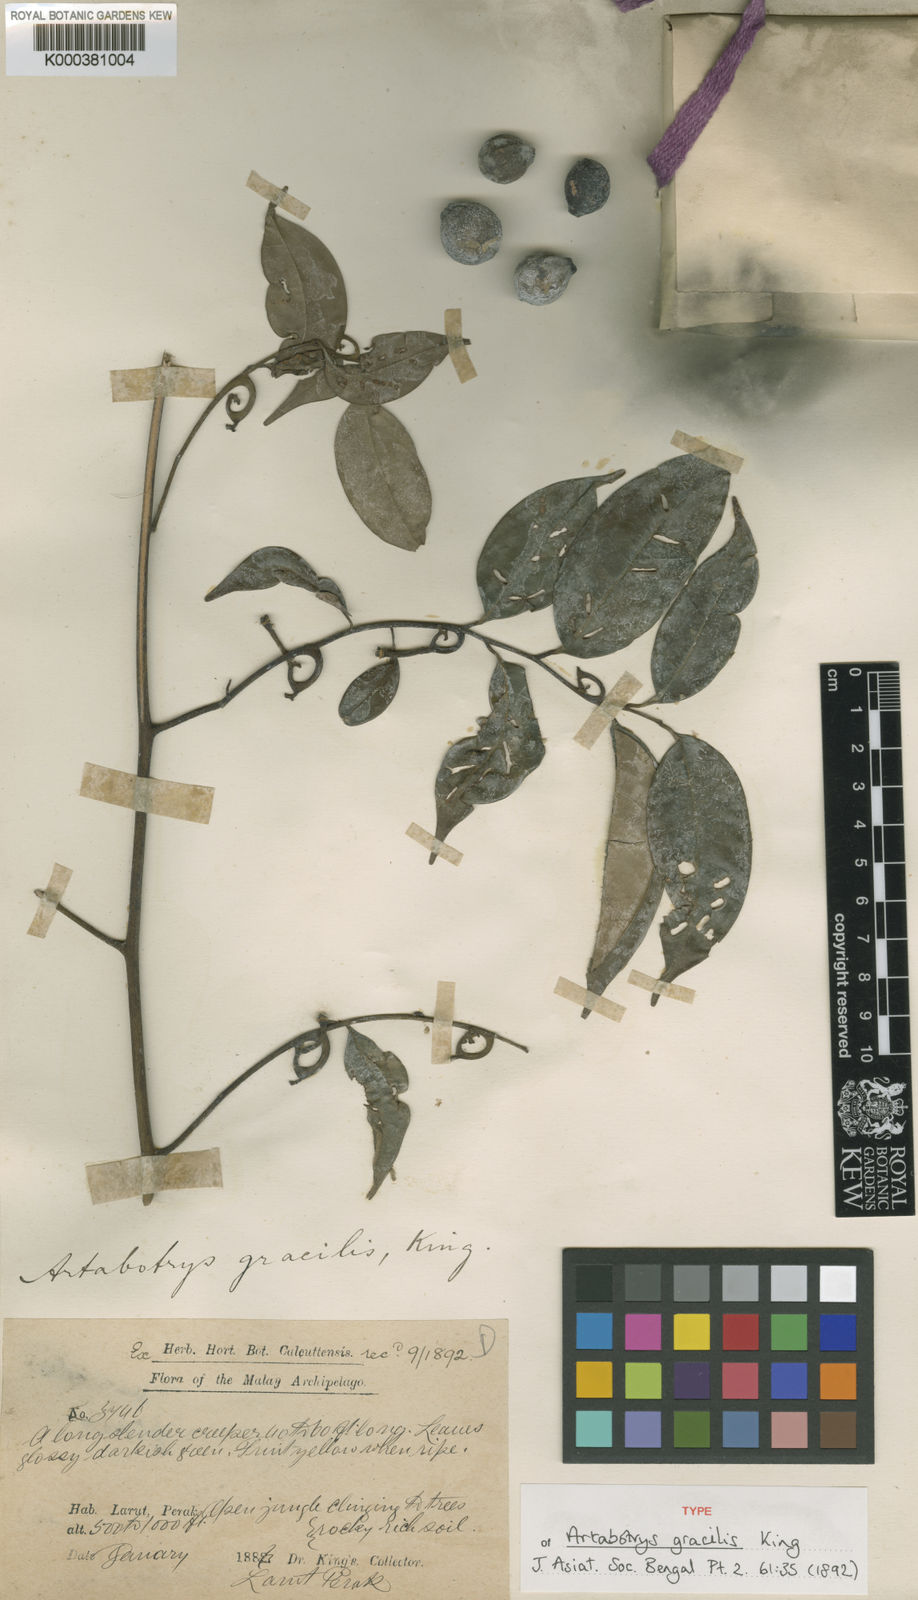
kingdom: Plantae
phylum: Tracheophyta
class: Magnoliopsida
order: Magnoliales
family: Annonaceae
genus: Artabotrys
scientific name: Artabotrys gracilis
